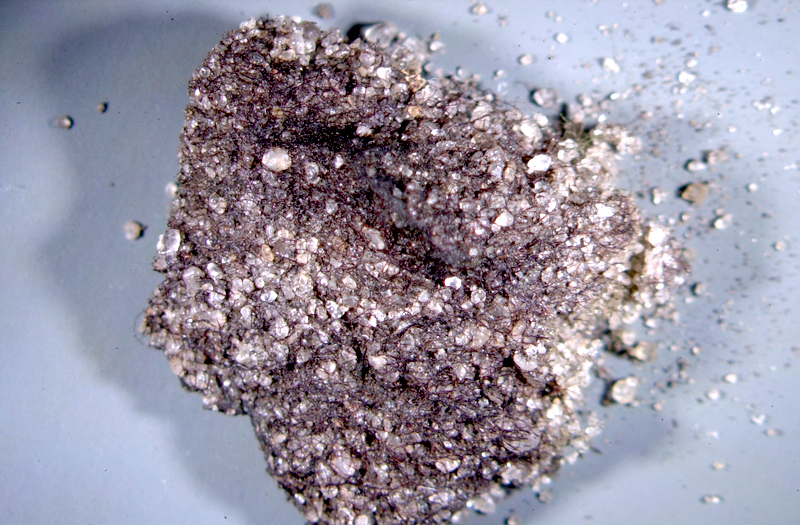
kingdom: Bacteria
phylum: Cyanobacteria
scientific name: Cyanobacteria
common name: Cyanobacteria
